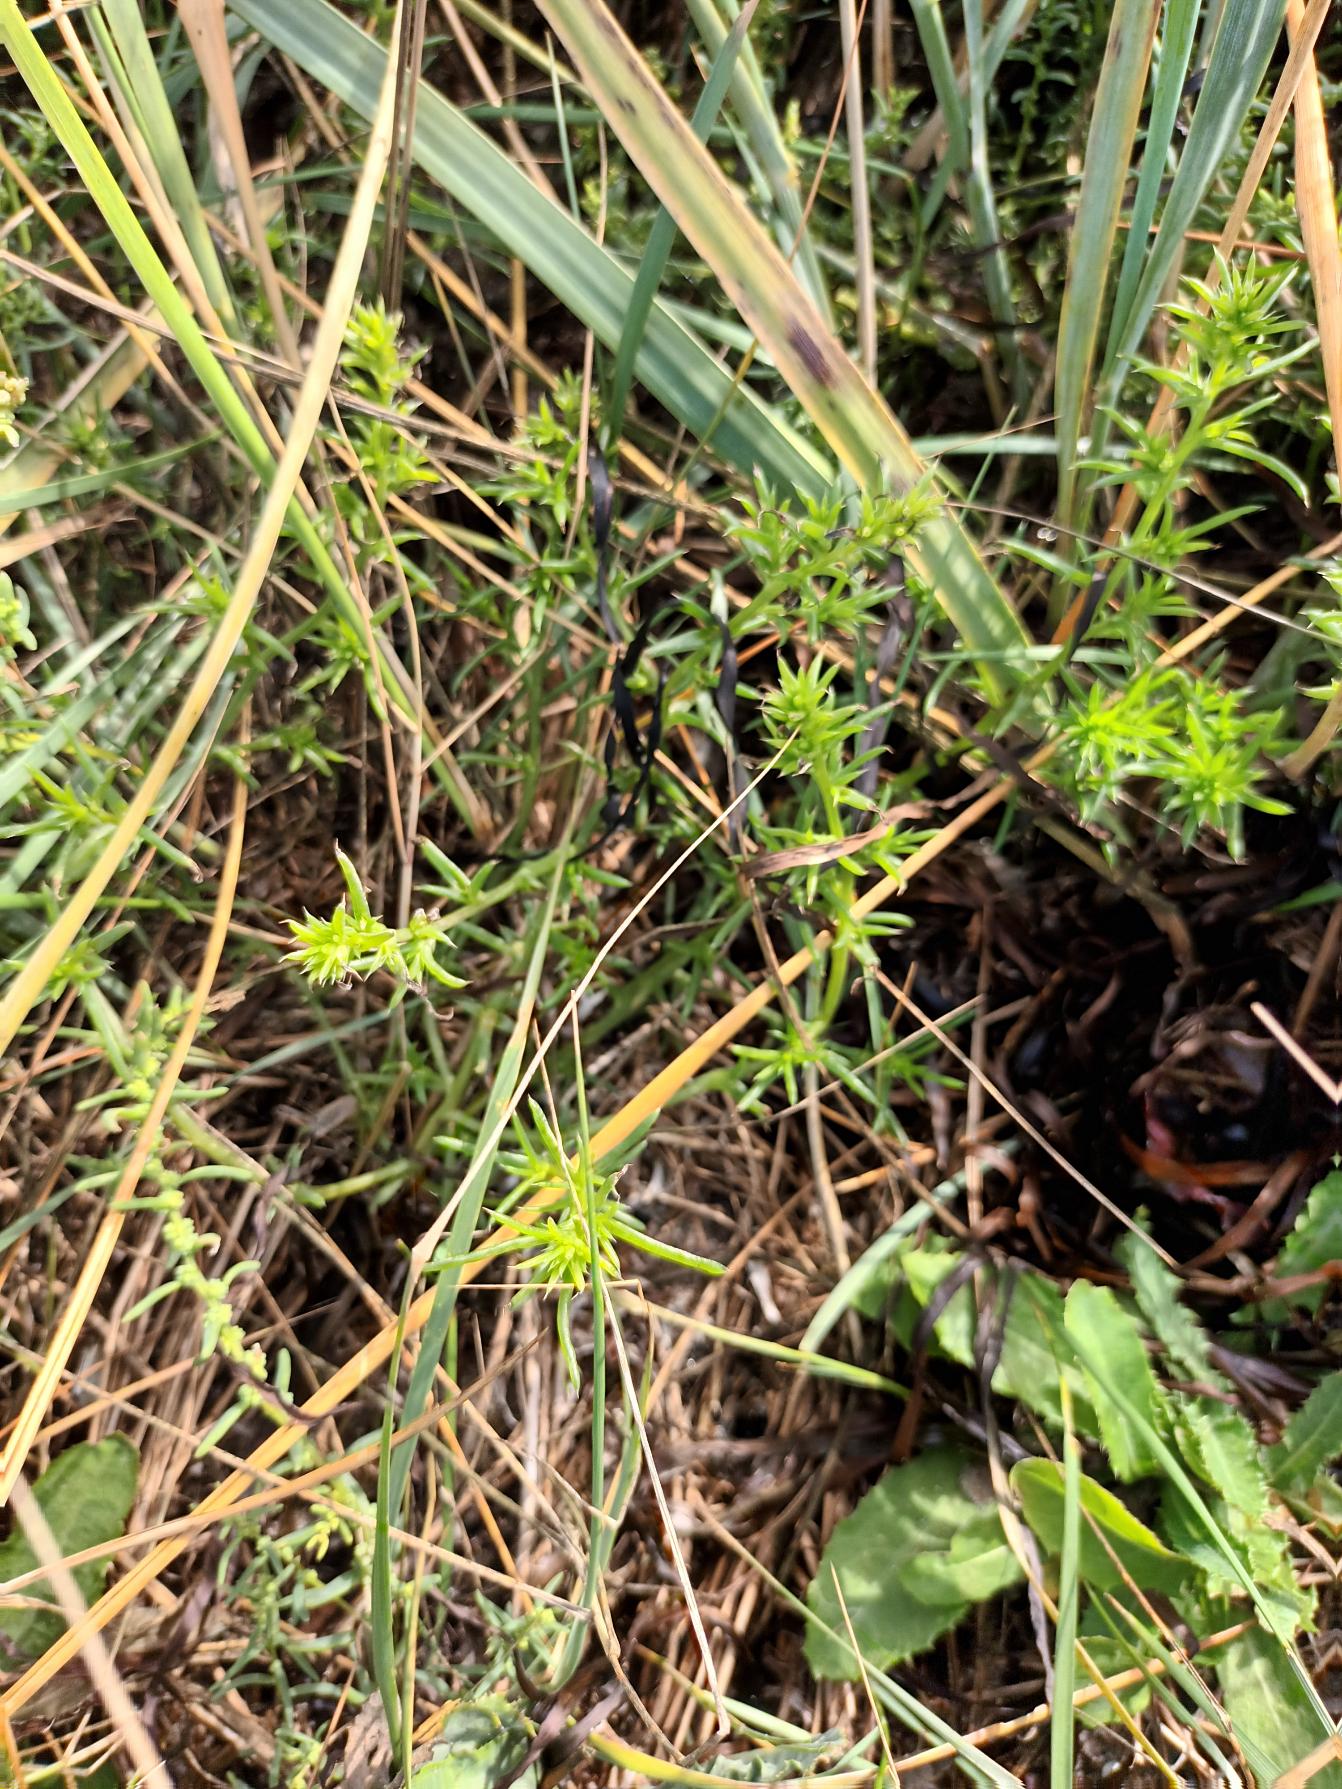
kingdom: Plantae
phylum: Tracheophyta
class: Magnoliopsida
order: Caryophyllales
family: Amaranthaceae
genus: Salsola
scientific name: Salsola kali
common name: Sodaurt
